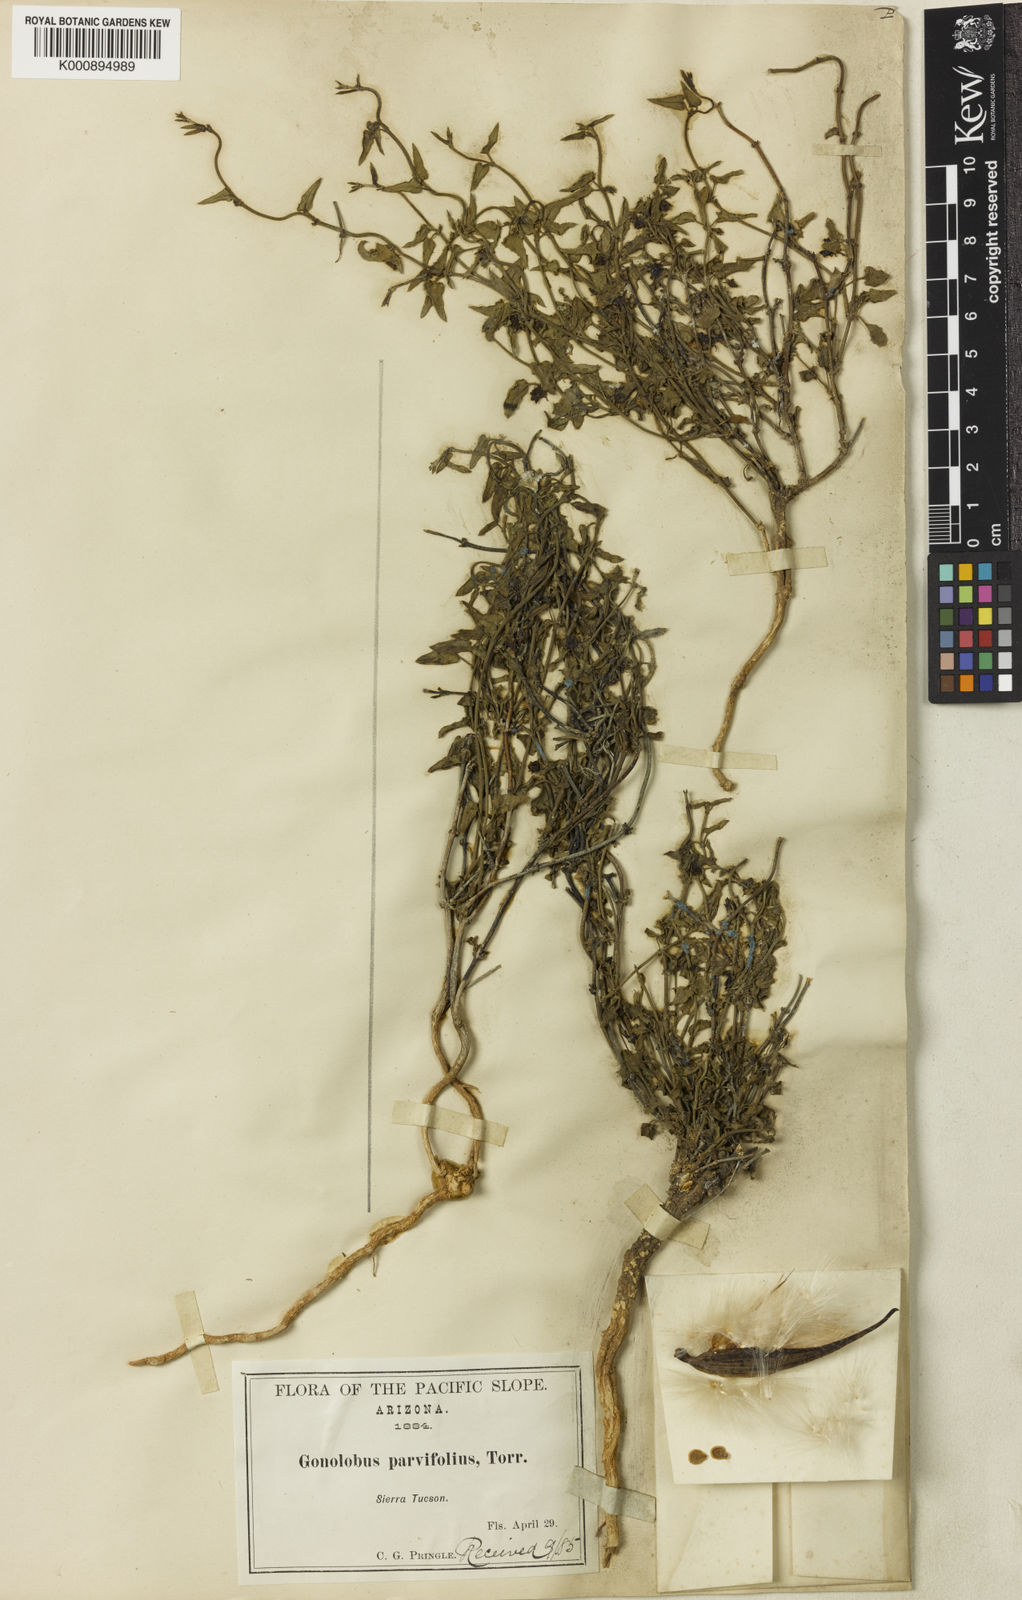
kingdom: Plantae
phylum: Tracheophyta
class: Magnoliopsida
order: Gentianales
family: Apocynaceae
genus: Matelea
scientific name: Matelea parvifolia
